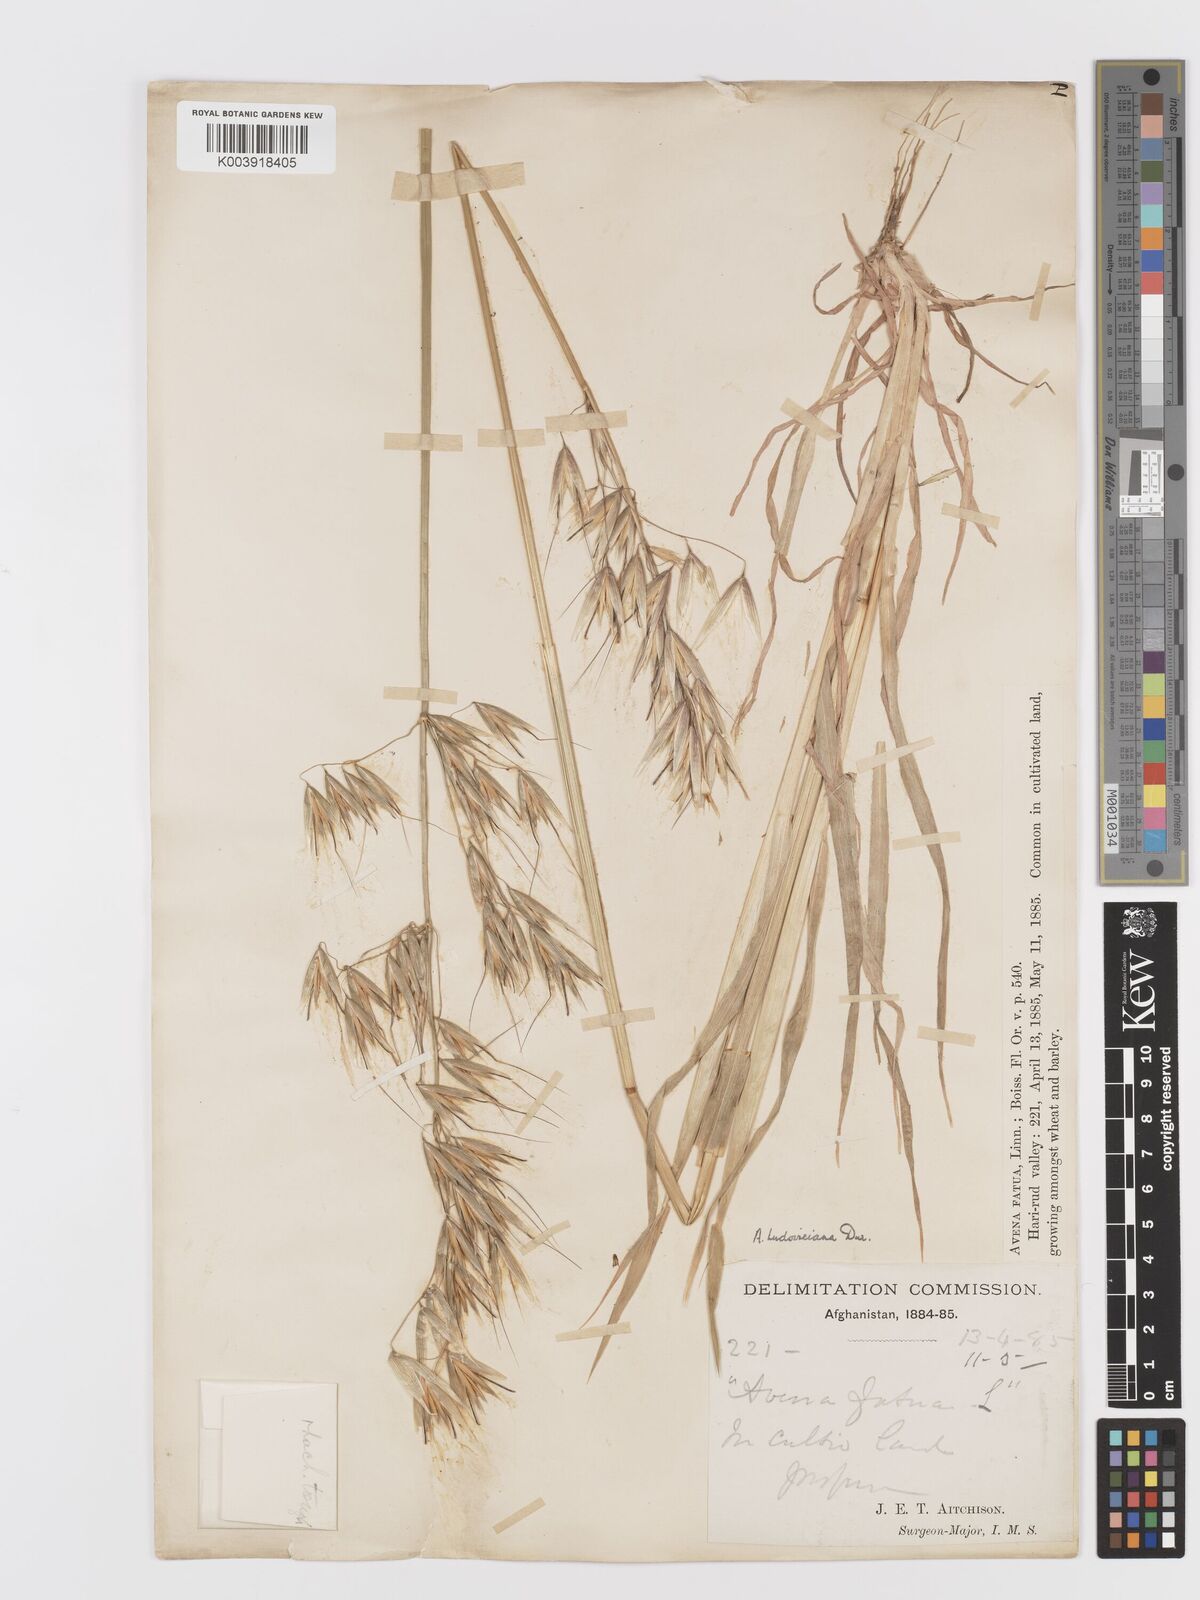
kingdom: Plantae
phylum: Tracheophyta
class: Liliopsida
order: Poales
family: Poaceae
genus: Avena
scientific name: Avena sterilis
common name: Animated oat
